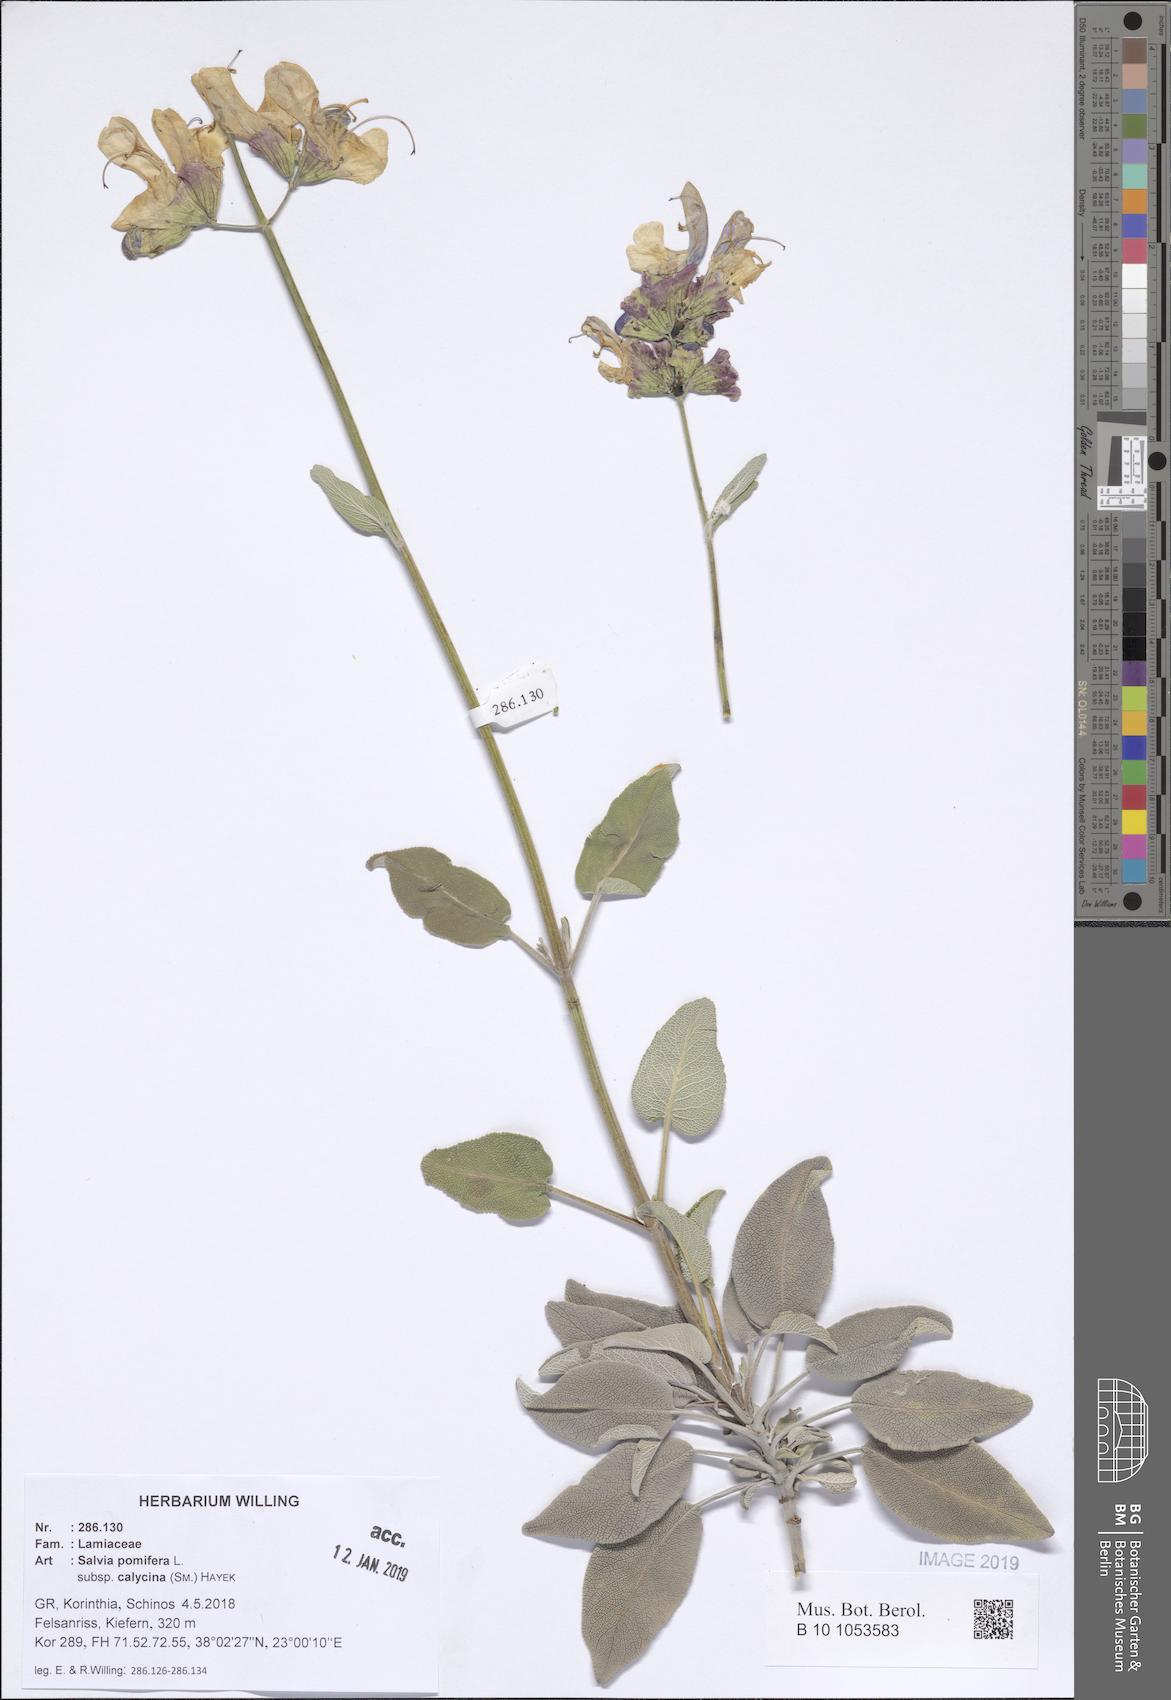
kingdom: Plantae
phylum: Tracheophyta
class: Magnoliopsida
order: Lamiales
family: Lamiaceae
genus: Salvia
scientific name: Salvia pomifera
